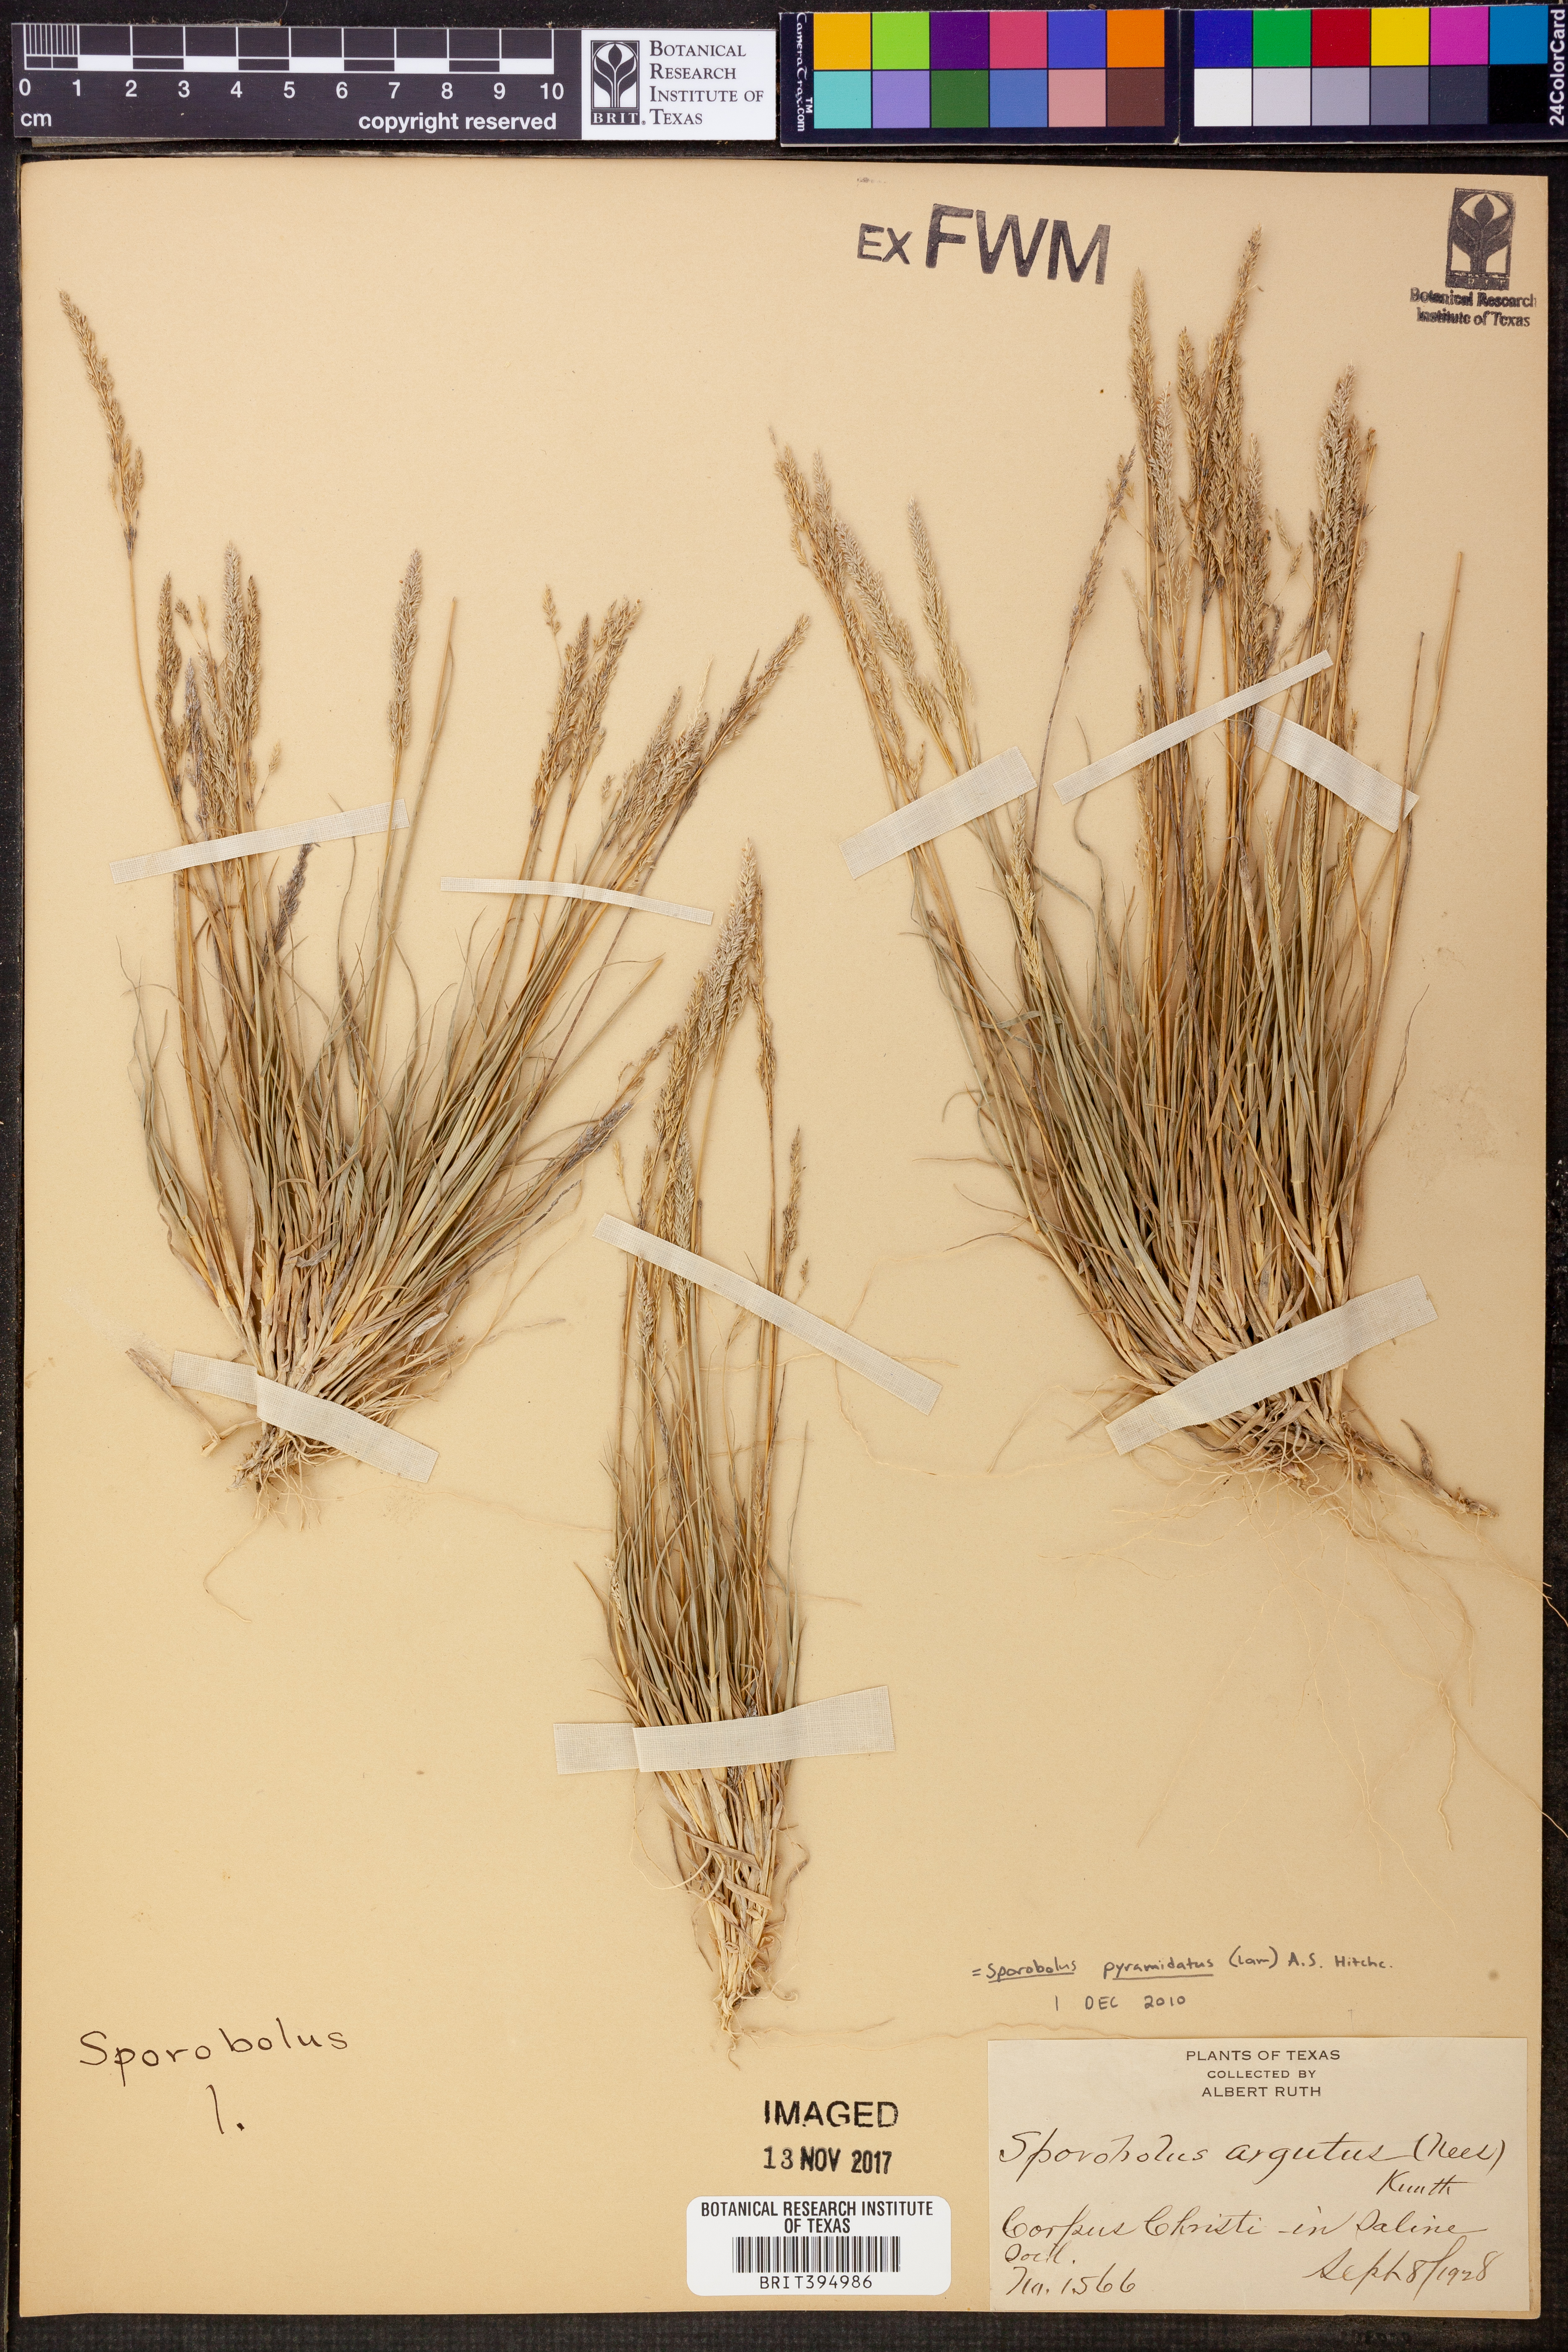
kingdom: Plantae
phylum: Tracheophyta
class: Liliopsida
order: Poales
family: Poaceae
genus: Sporobolus
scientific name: Sporobolus pyramidatus
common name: Whorled dropseed
